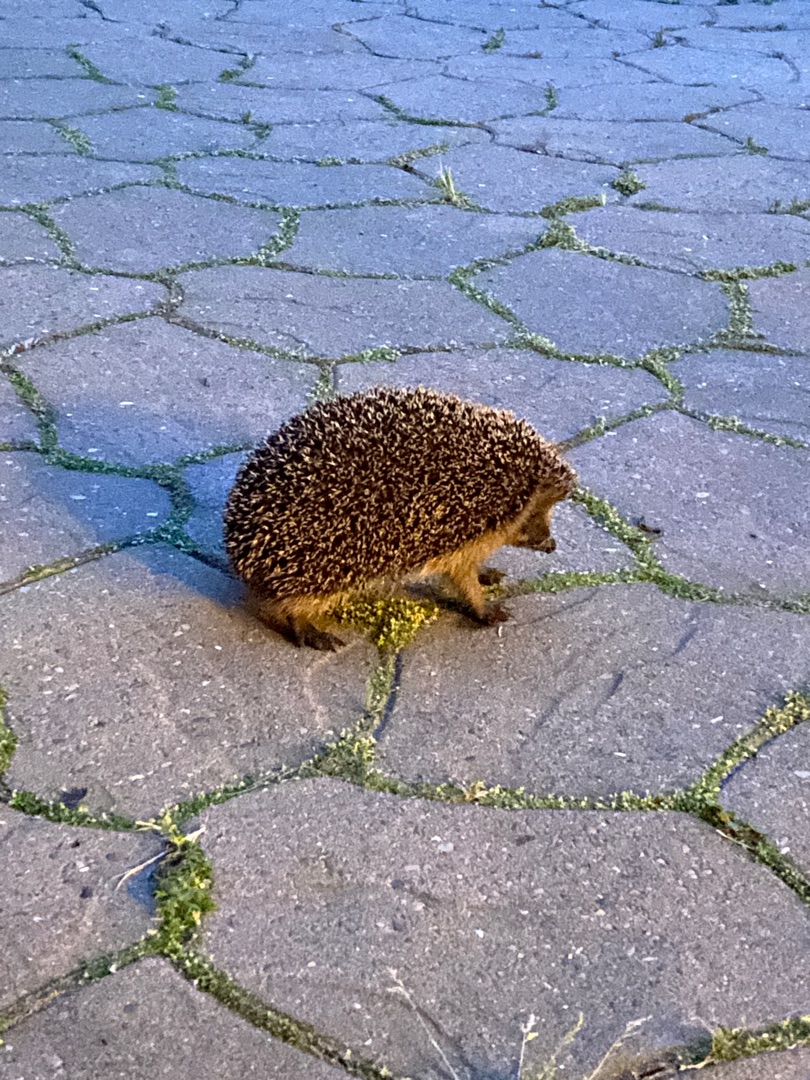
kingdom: Animalia
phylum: Chordata
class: Mammalia
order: Erinaceomorpha
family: Erinaceidae
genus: Erinaceus
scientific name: Erinaceus europaeus
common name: Pindsvin
